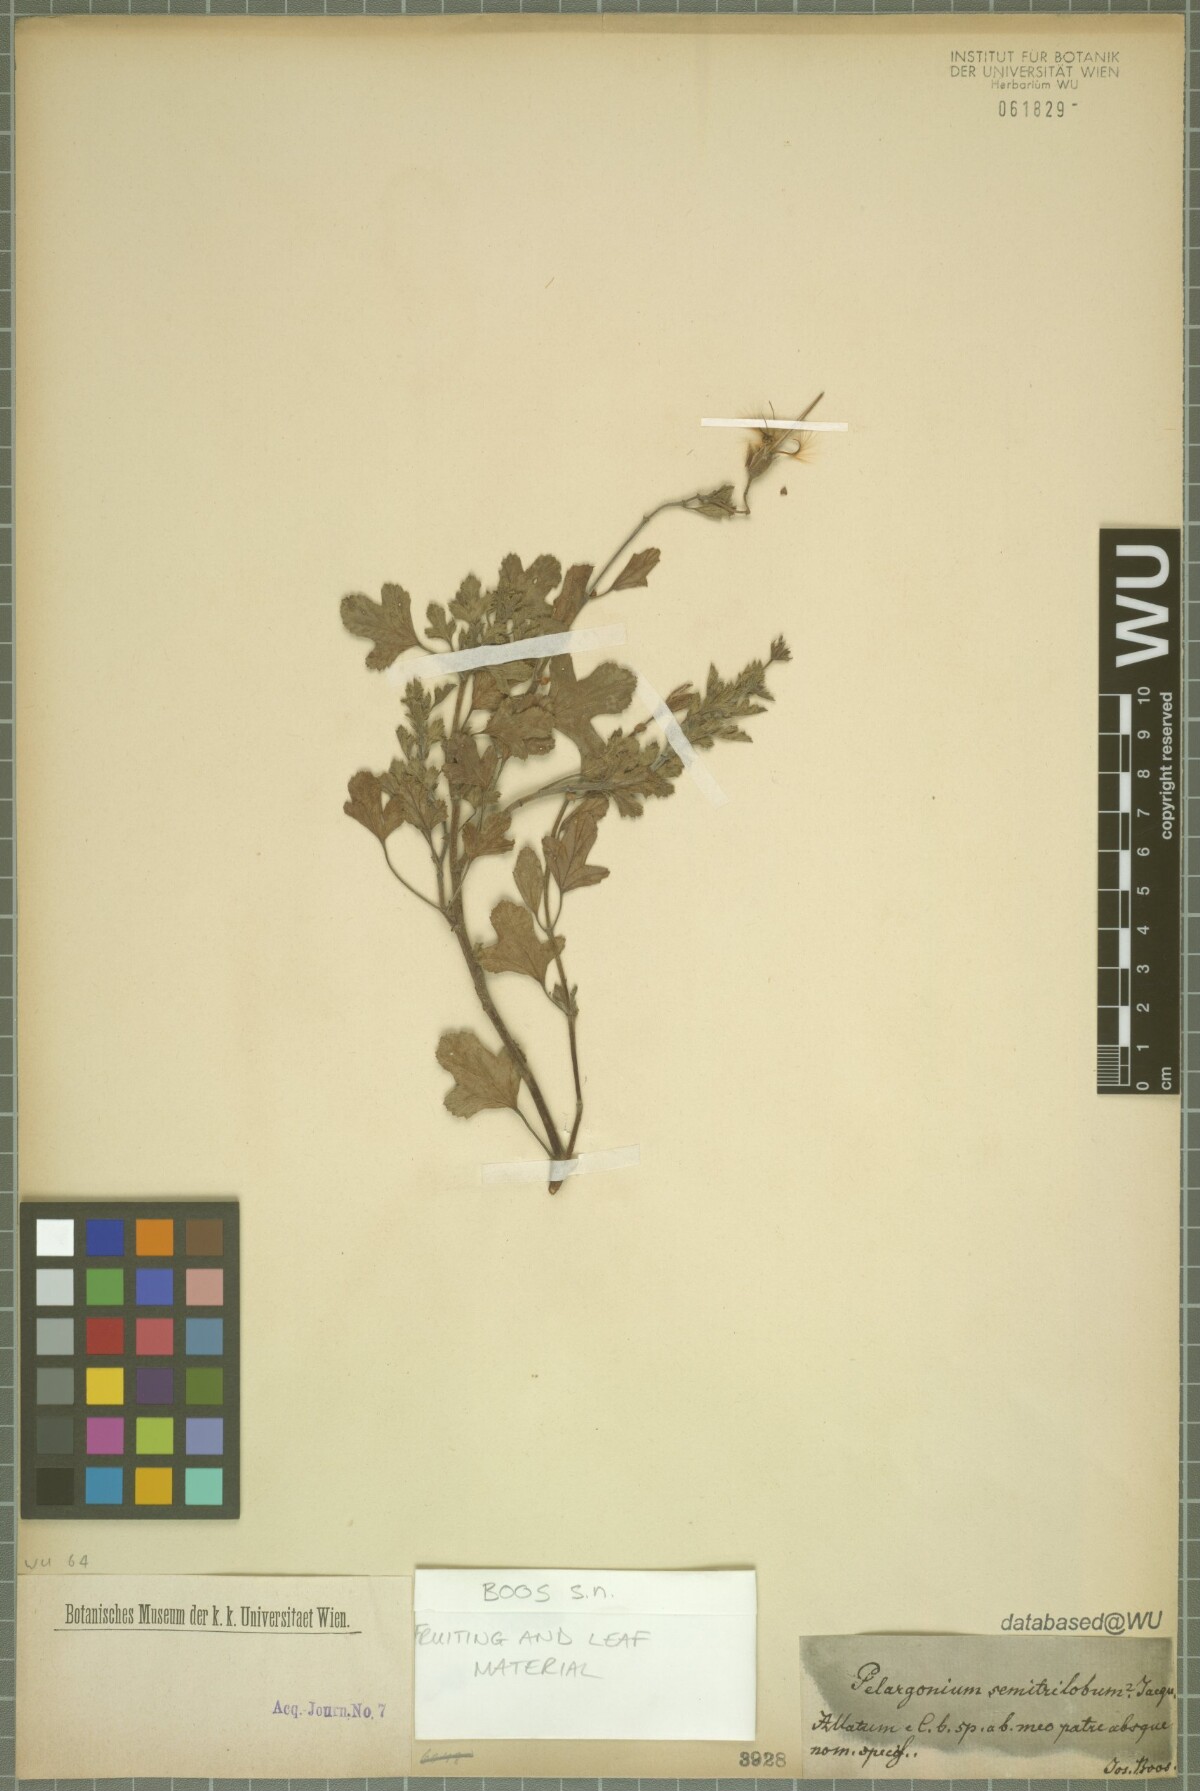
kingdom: Plantae
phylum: Tracheophyta
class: Magnoliopsida
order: Geraniales
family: Geraniaceae
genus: Pelargonium
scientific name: Pelargonium semitrilobum
